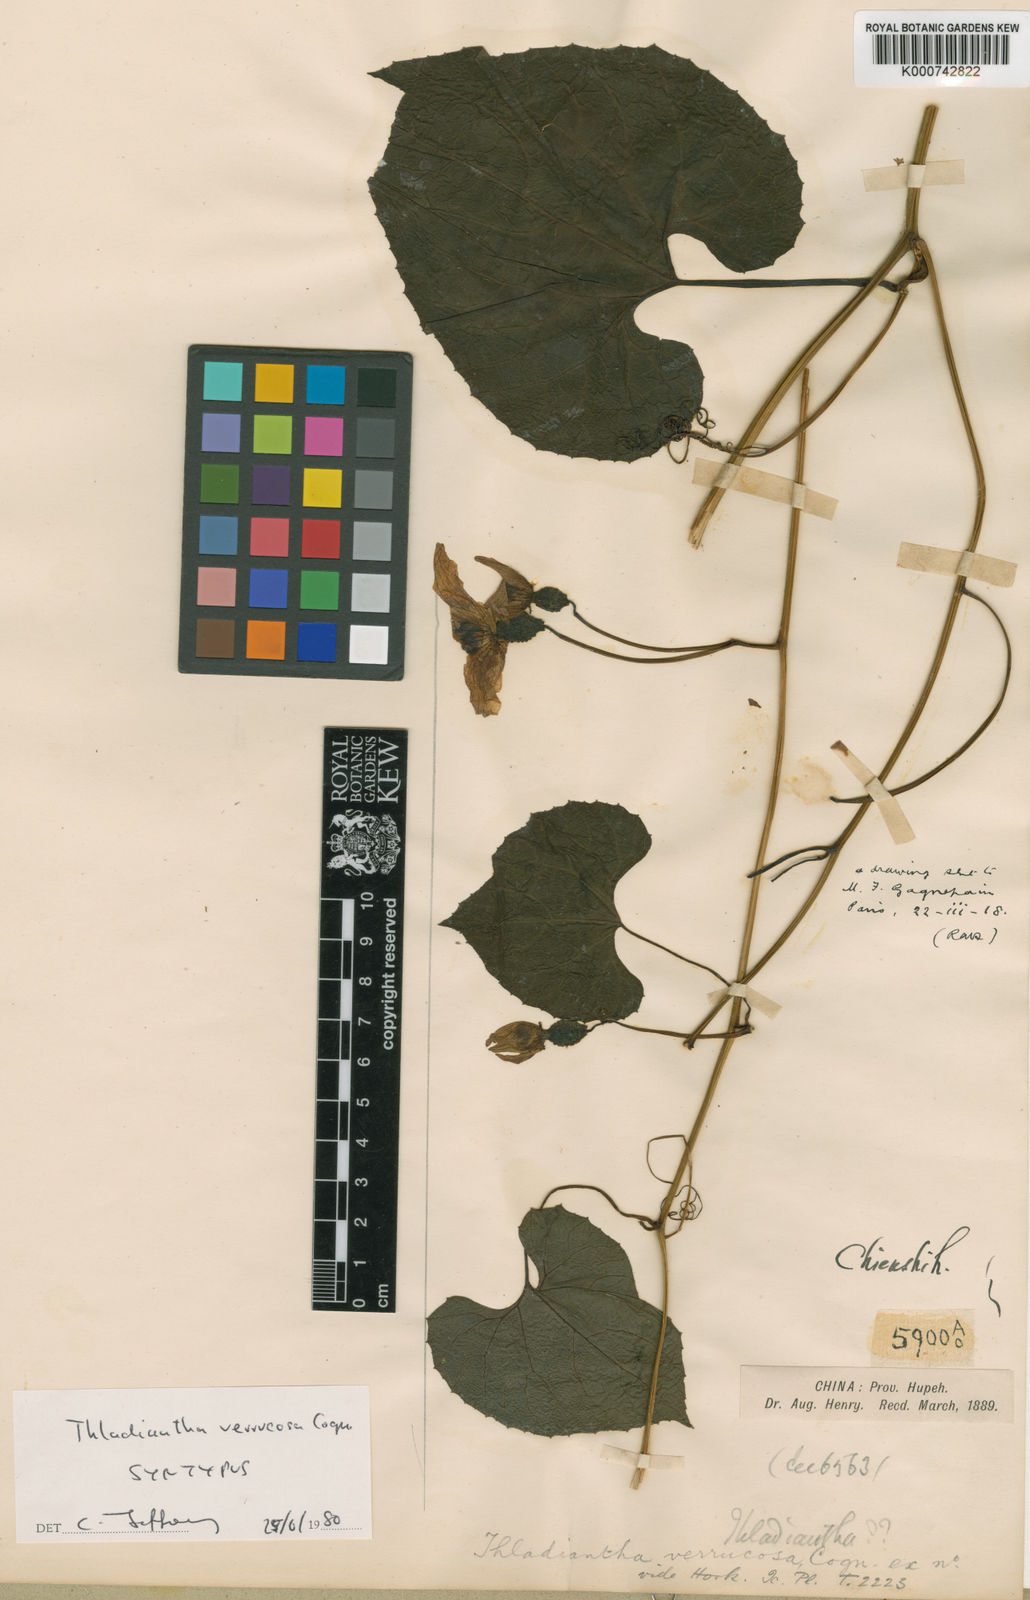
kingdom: Plantae
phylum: Tracheophyta
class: Magnoliopsida
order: Cucurbitales
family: Cucurbitaceae
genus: Thladiantha
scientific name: Thladiantha henryi
